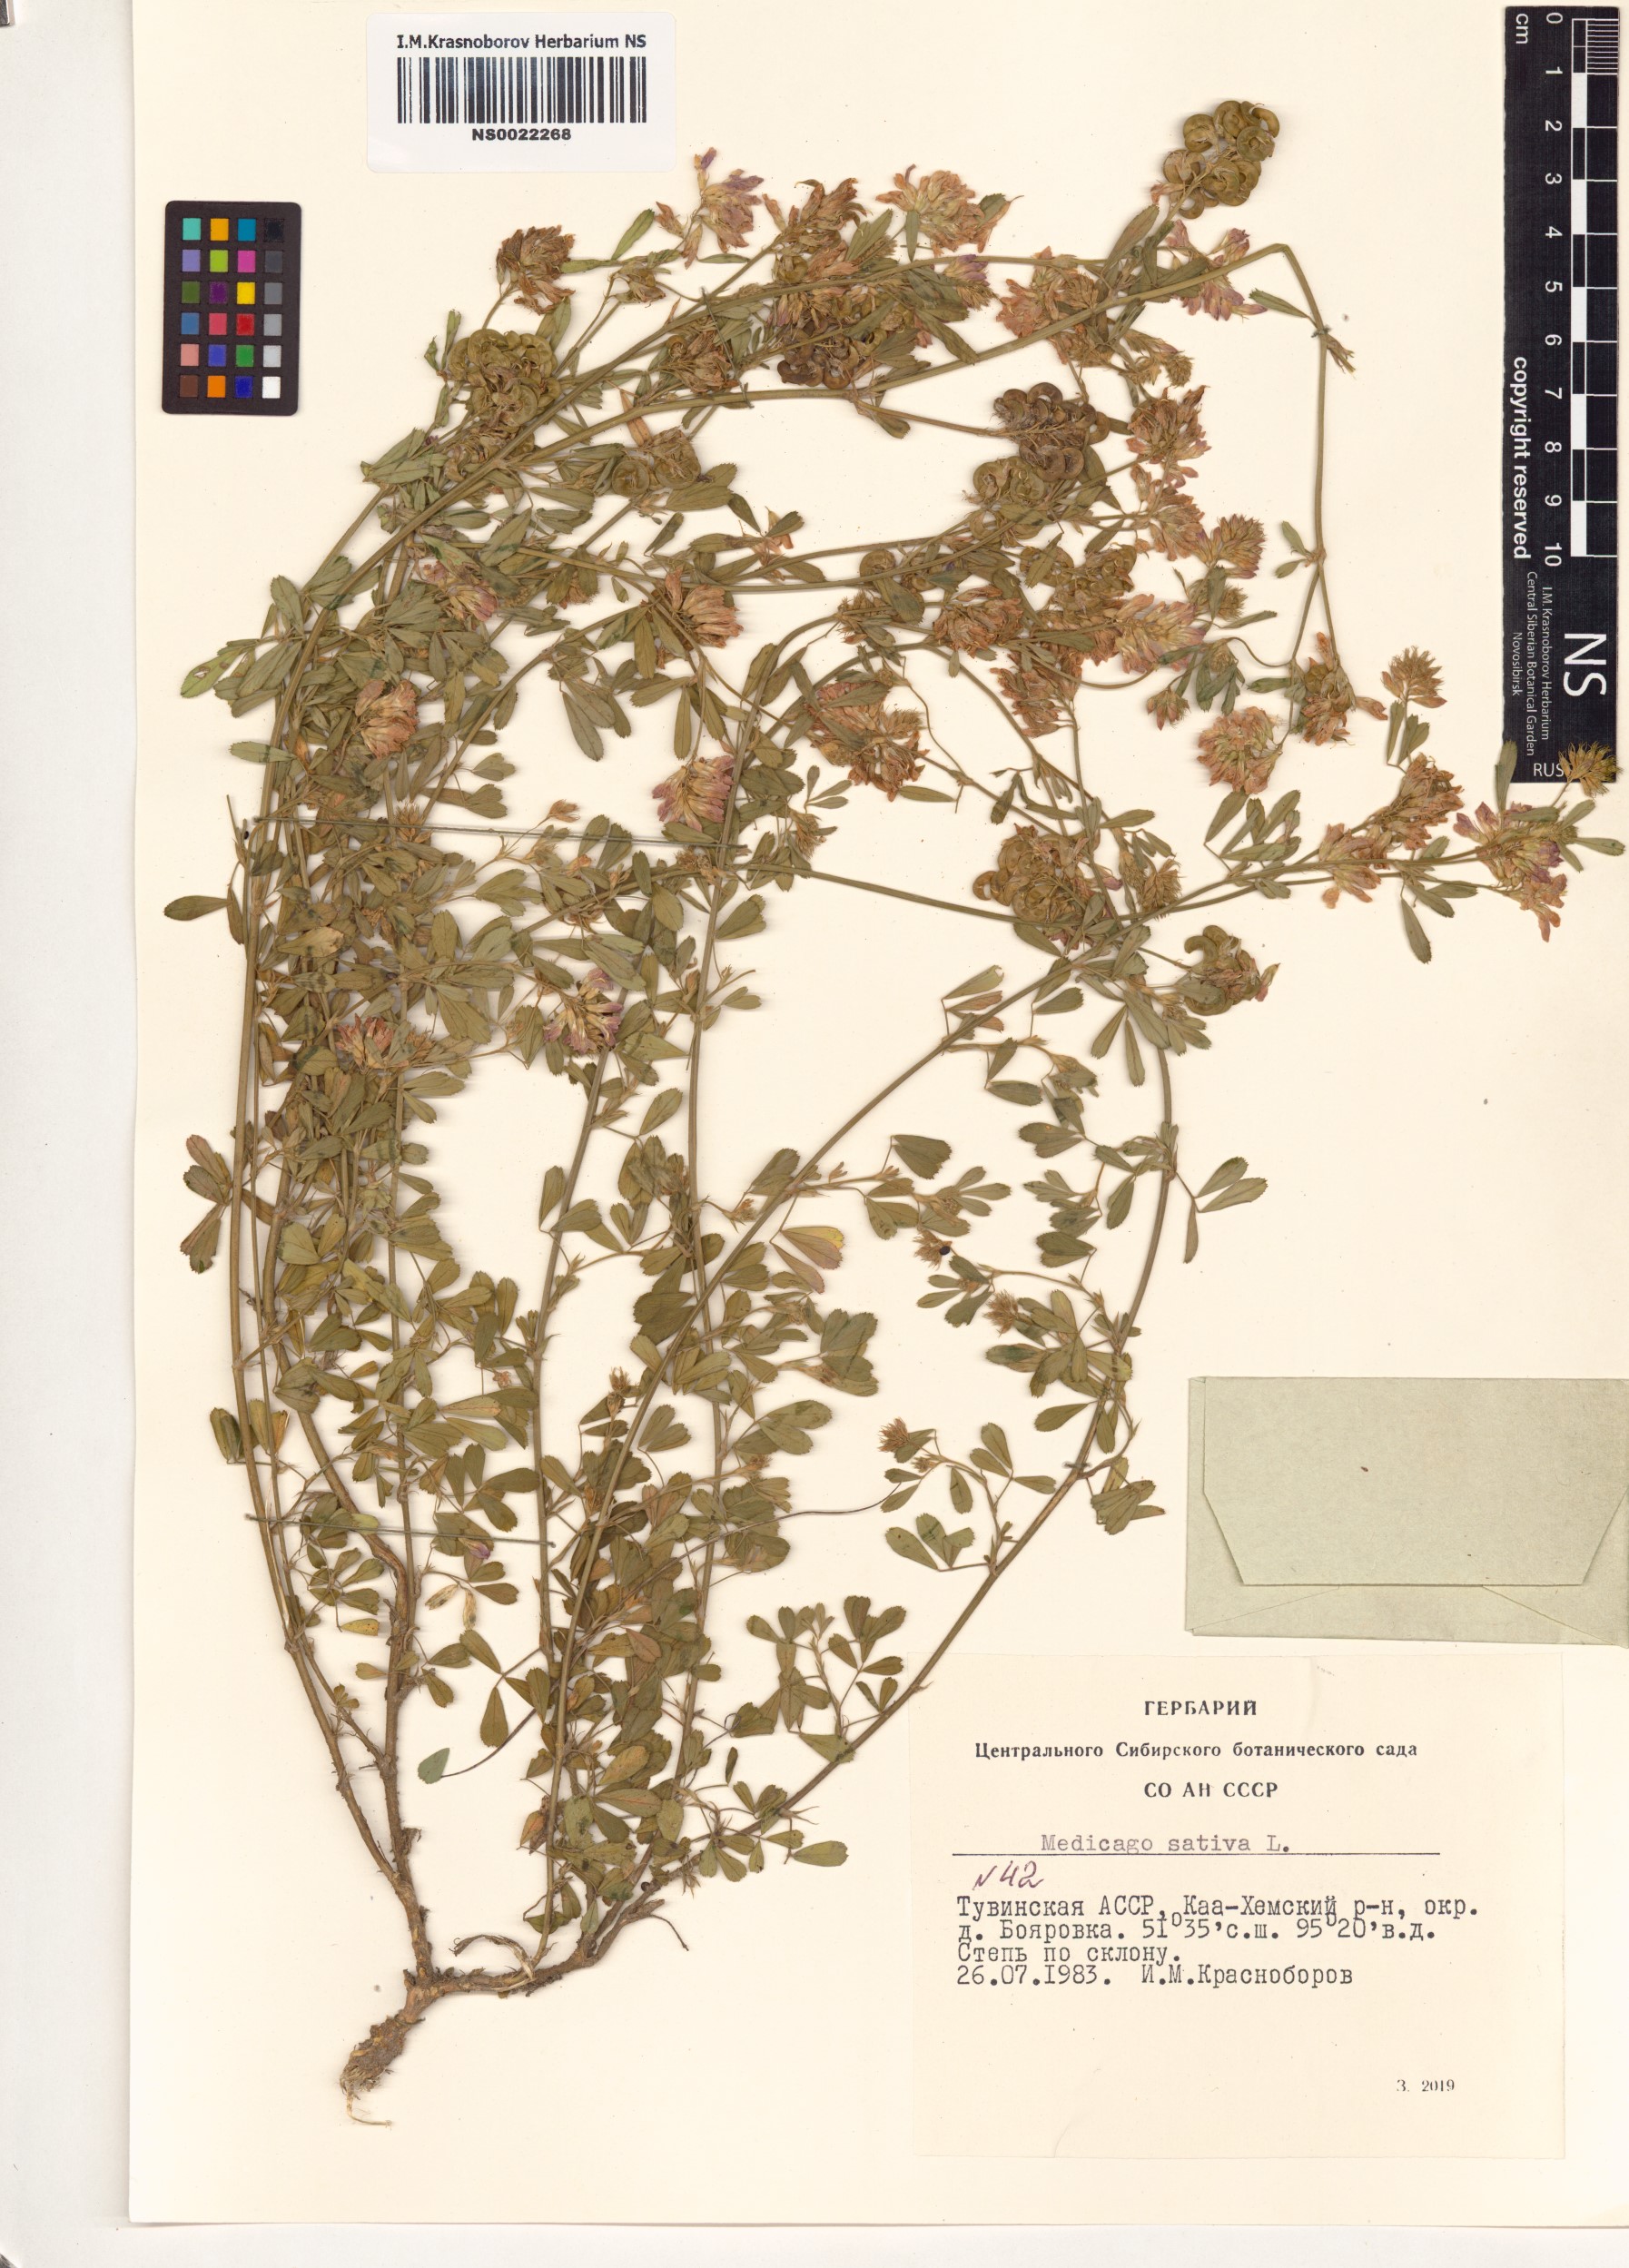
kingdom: Plantae
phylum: Tracheophyta
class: Magnoliopsida
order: Fabales
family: Fabaceae
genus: Medicago
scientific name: Medicago sativa
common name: Alfalfa
